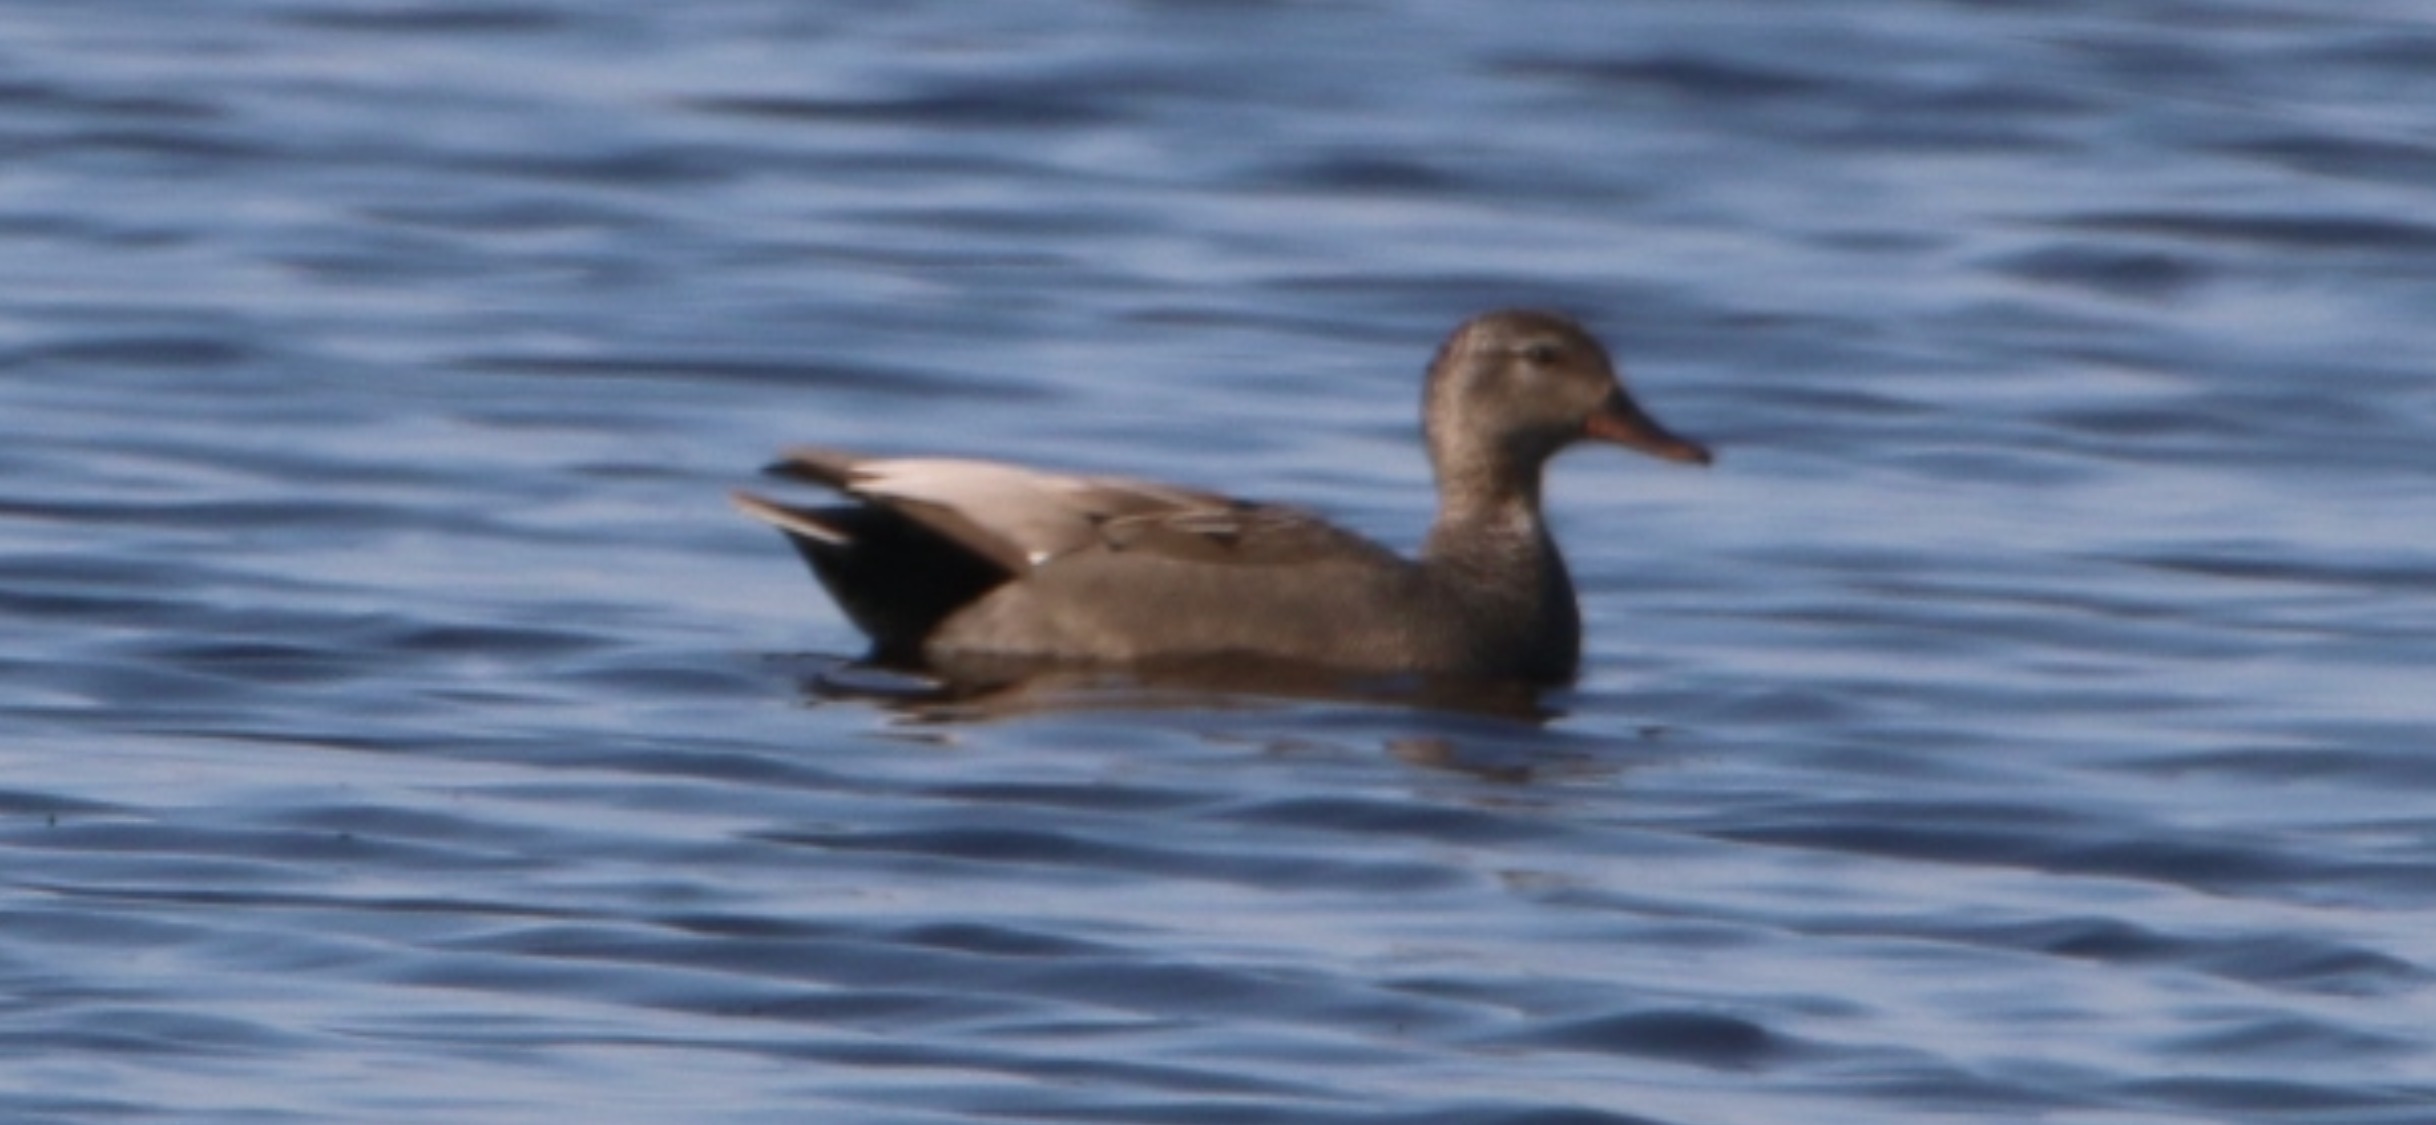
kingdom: Animalia
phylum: Chordata
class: Aves
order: Anseriformes
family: Anatidae
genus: Mareca
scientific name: Mareca strepera
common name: Knarand
